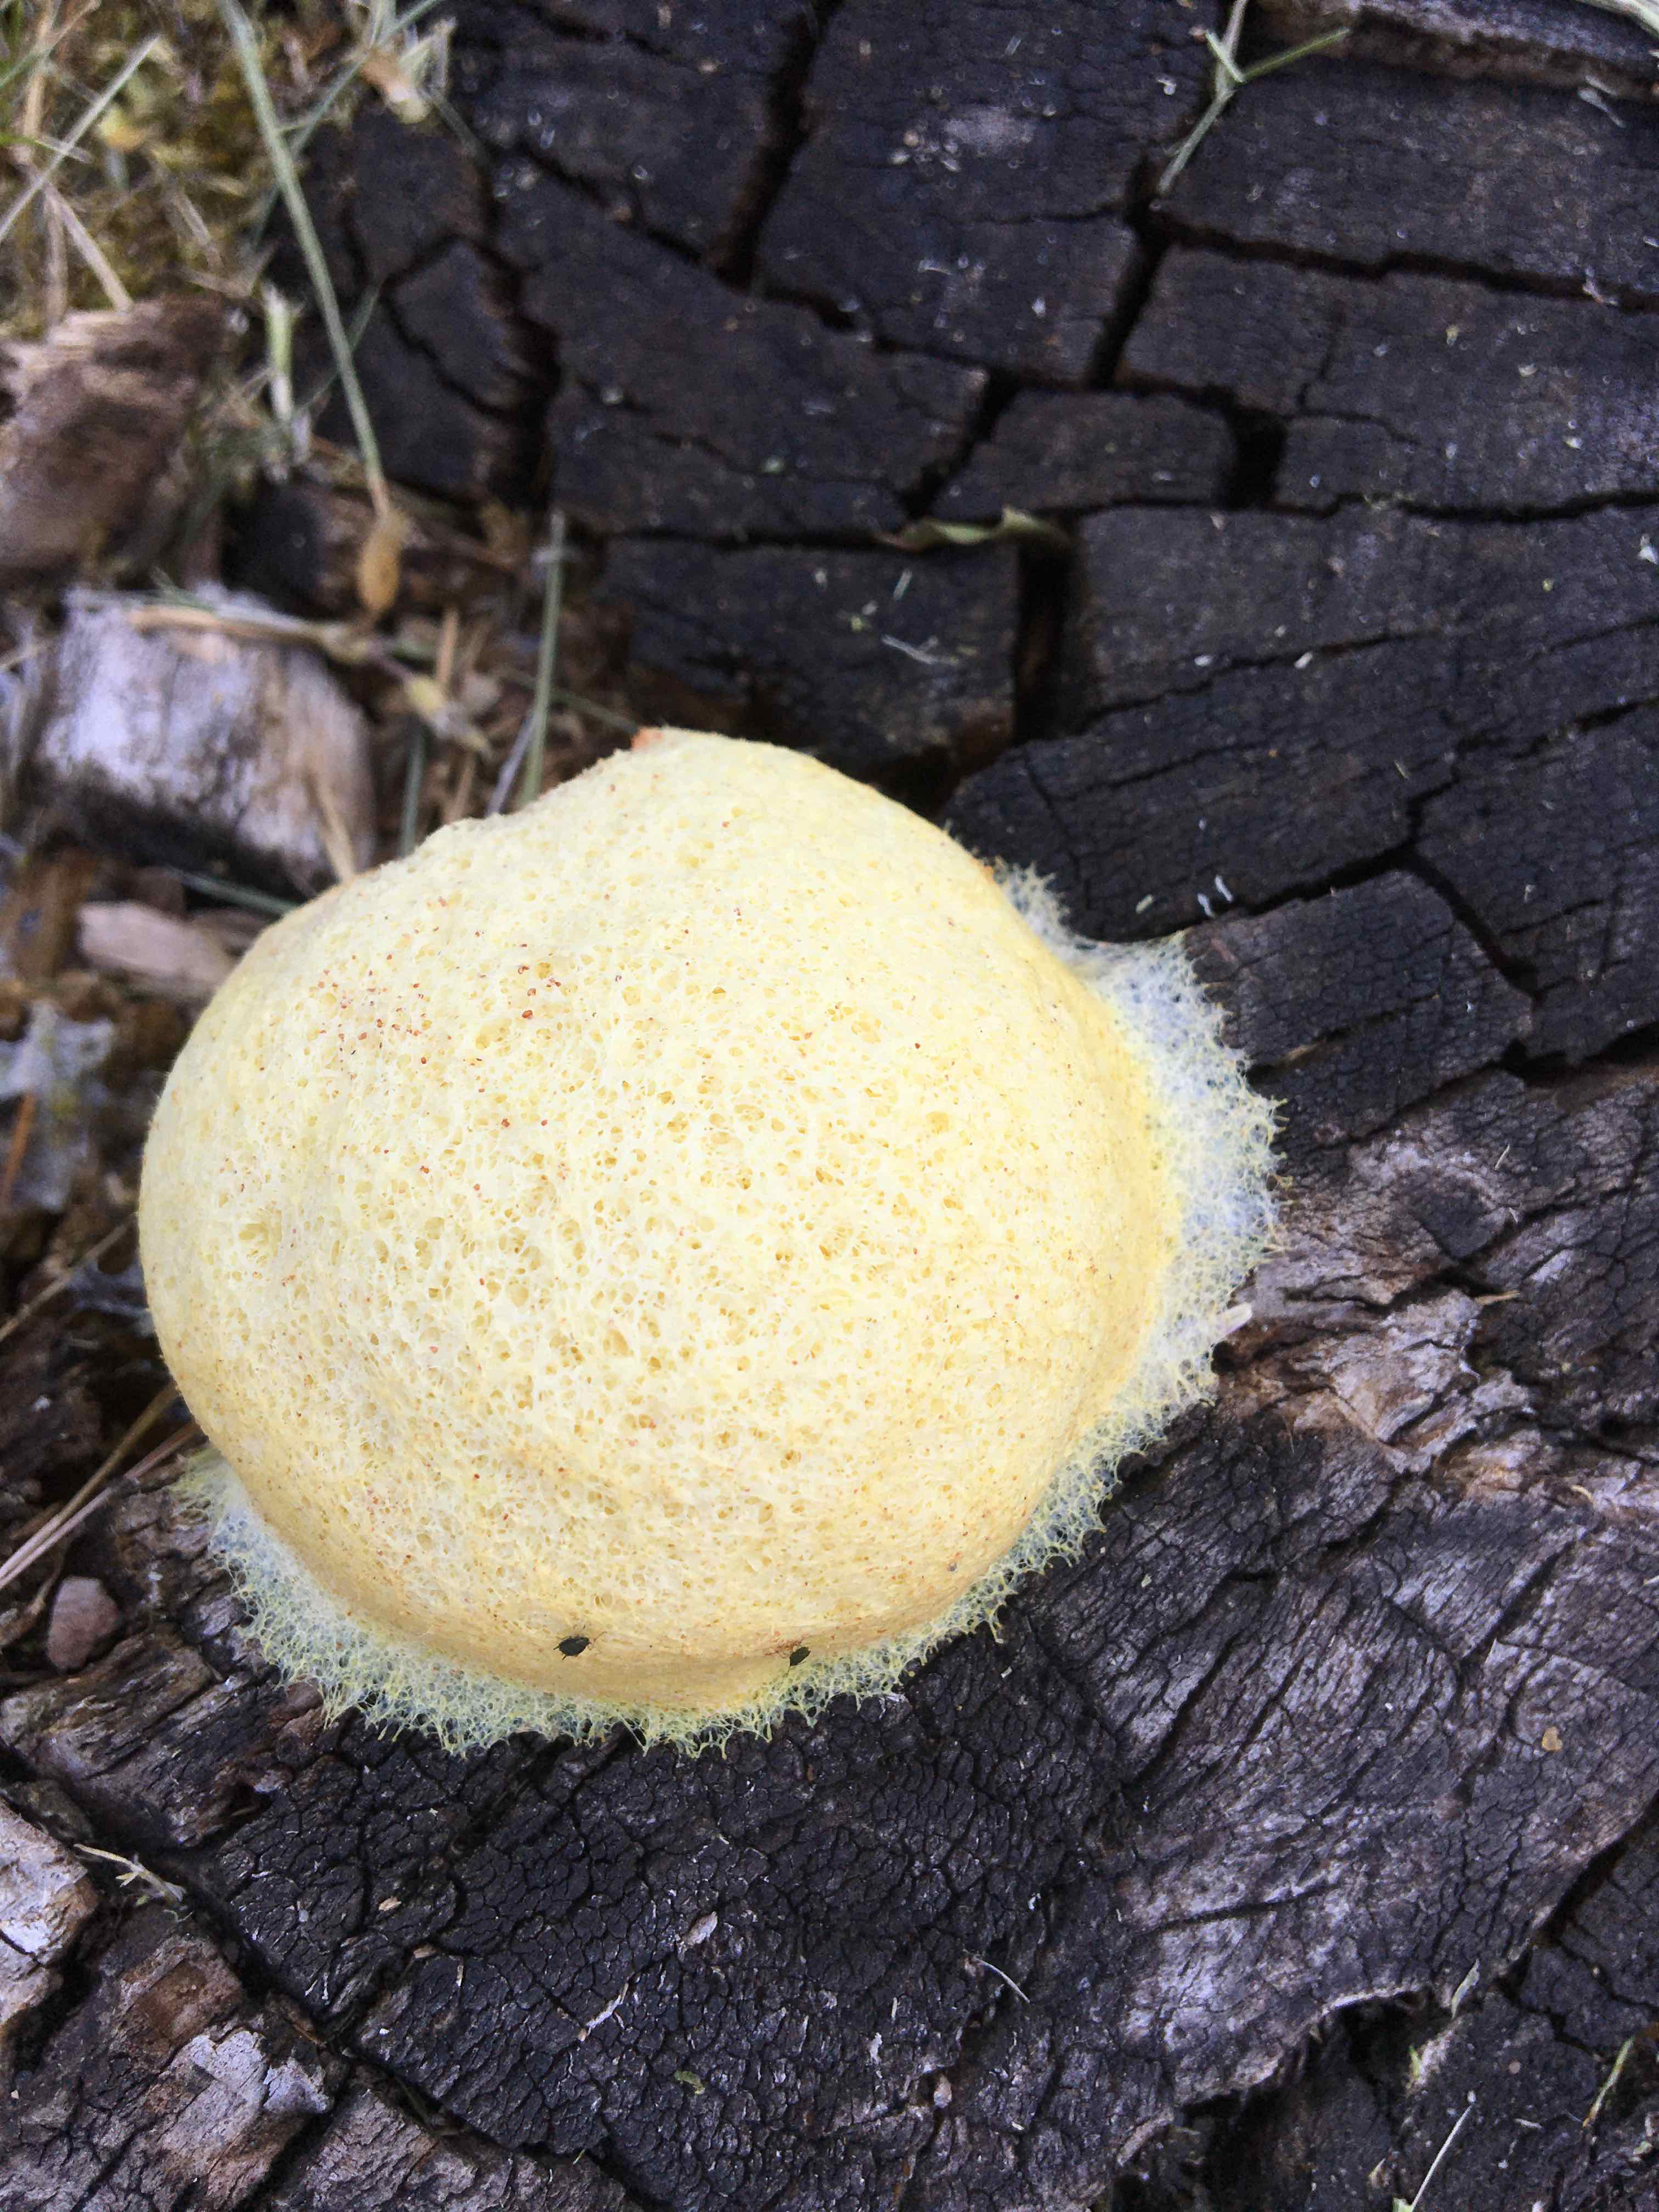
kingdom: Protozoa
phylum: Mycetozoa
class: Myxomycetes
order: Physarales
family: Physaraceae
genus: Fuligo
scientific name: Fuligo
